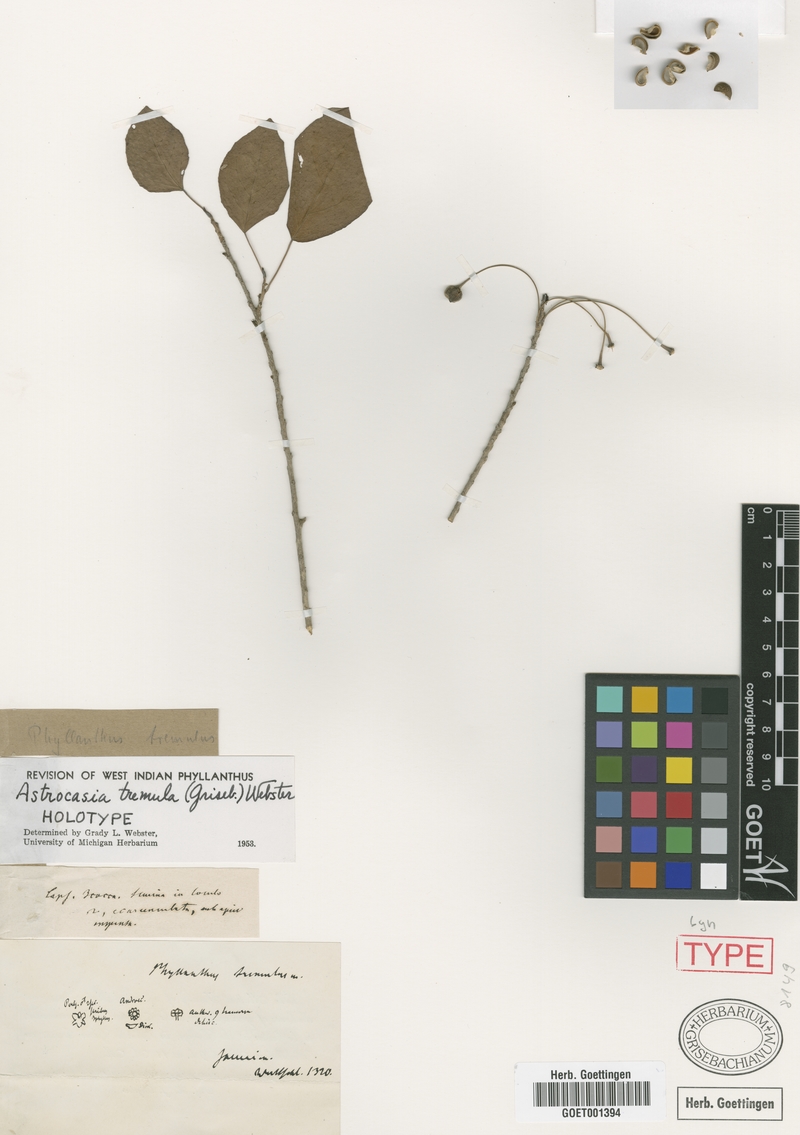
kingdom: Plantae
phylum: Tracheophyta
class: Magnoliopsida
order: Malpighiales
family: Phyllanthaceae
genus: Astrocasia
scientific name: Astrocasia tremula
